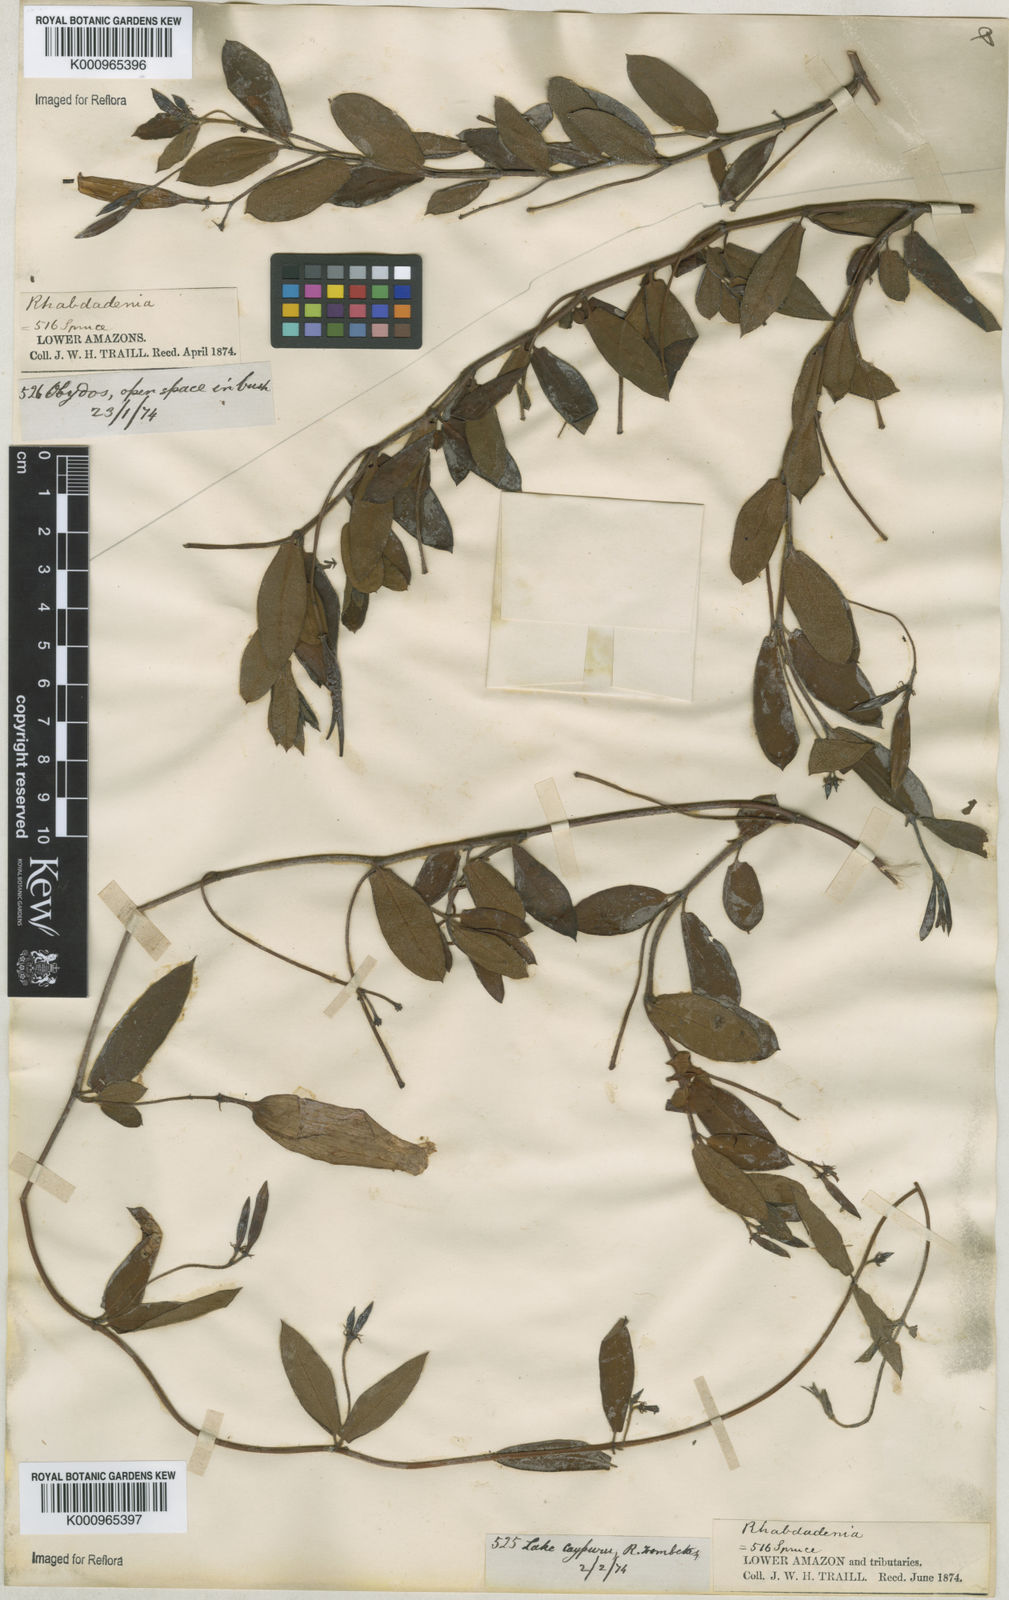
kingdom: Plantae
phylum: Tracheophyta
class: Magnoliopsida
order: Gentianales
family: Apocynaceae
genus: Rhabdadenia
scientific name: Rhabdadenia madida
